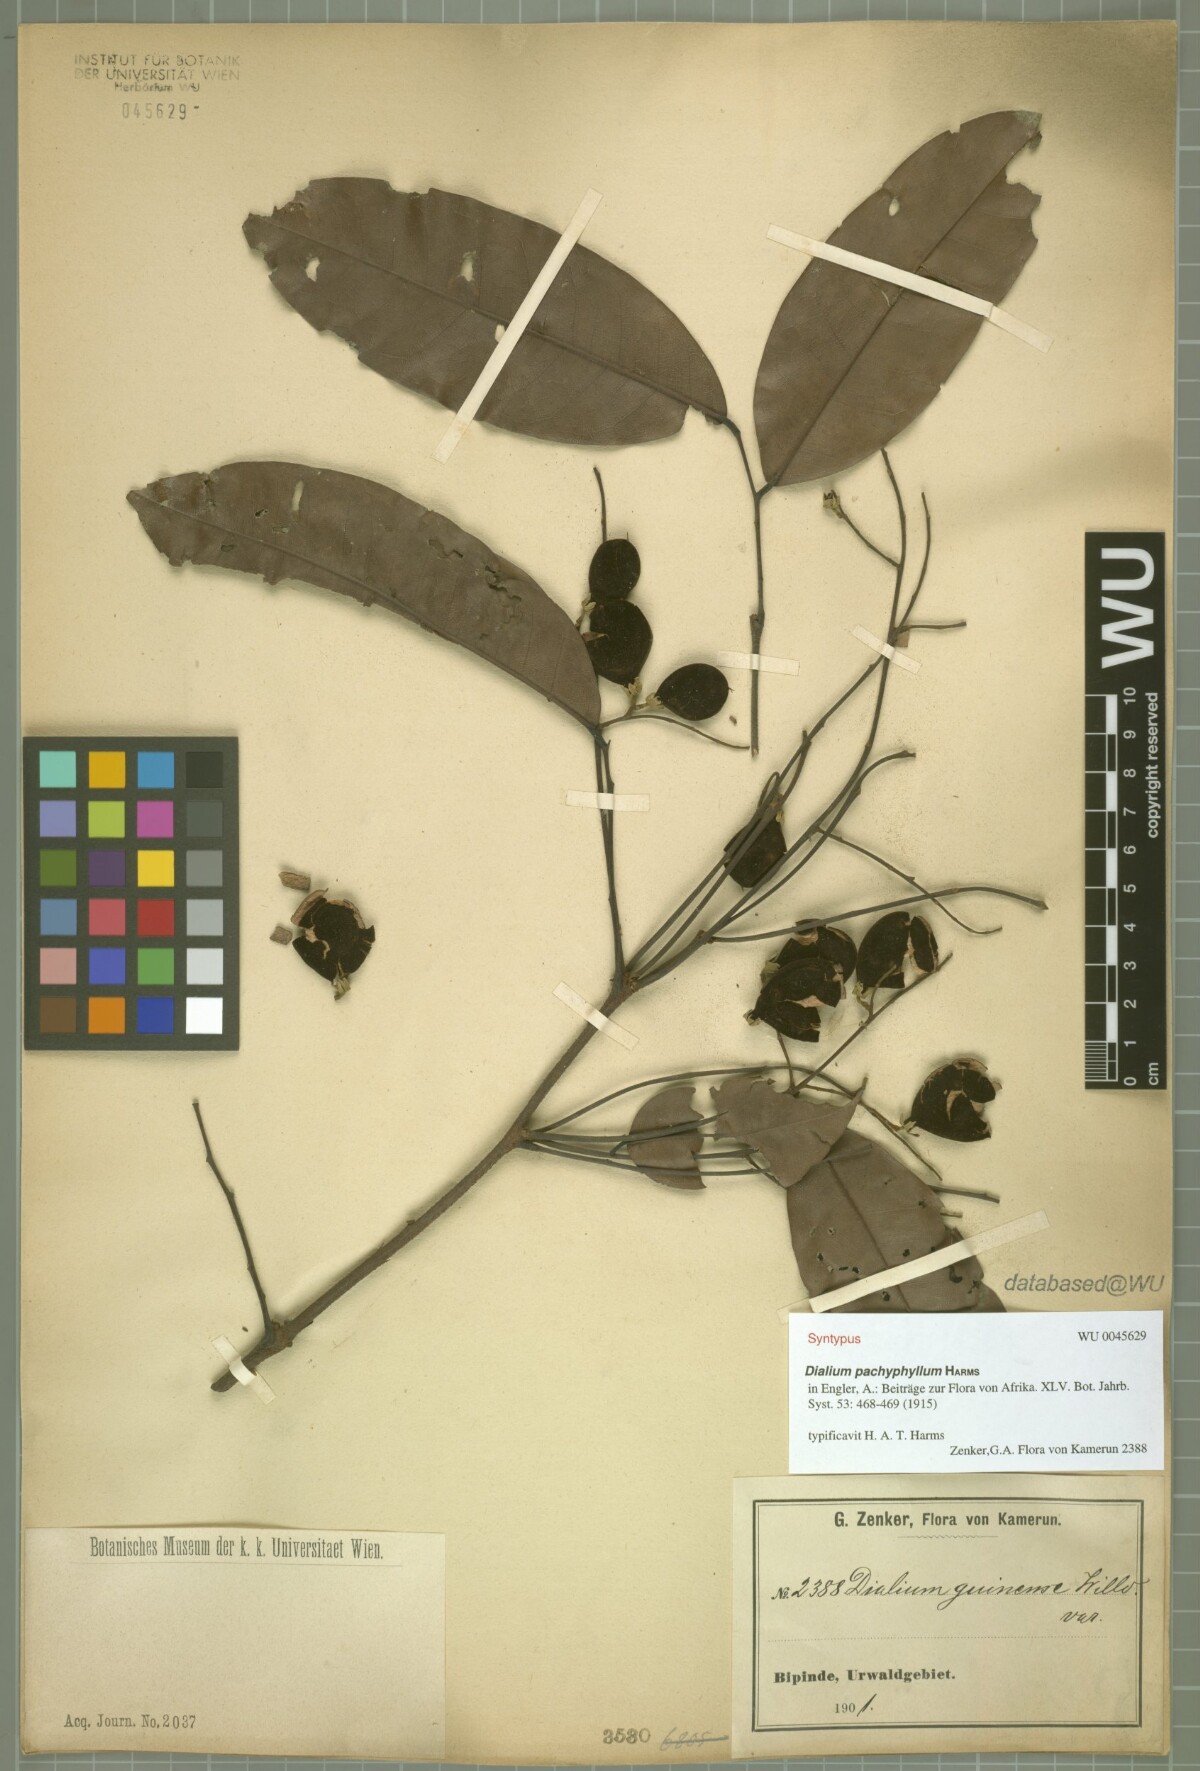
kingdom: Plantae
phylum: Tracheophyta
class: Magnoliopsida
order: Fabales
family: Fabaceae
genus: Dialium
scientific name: Dialium pachyphyllum
